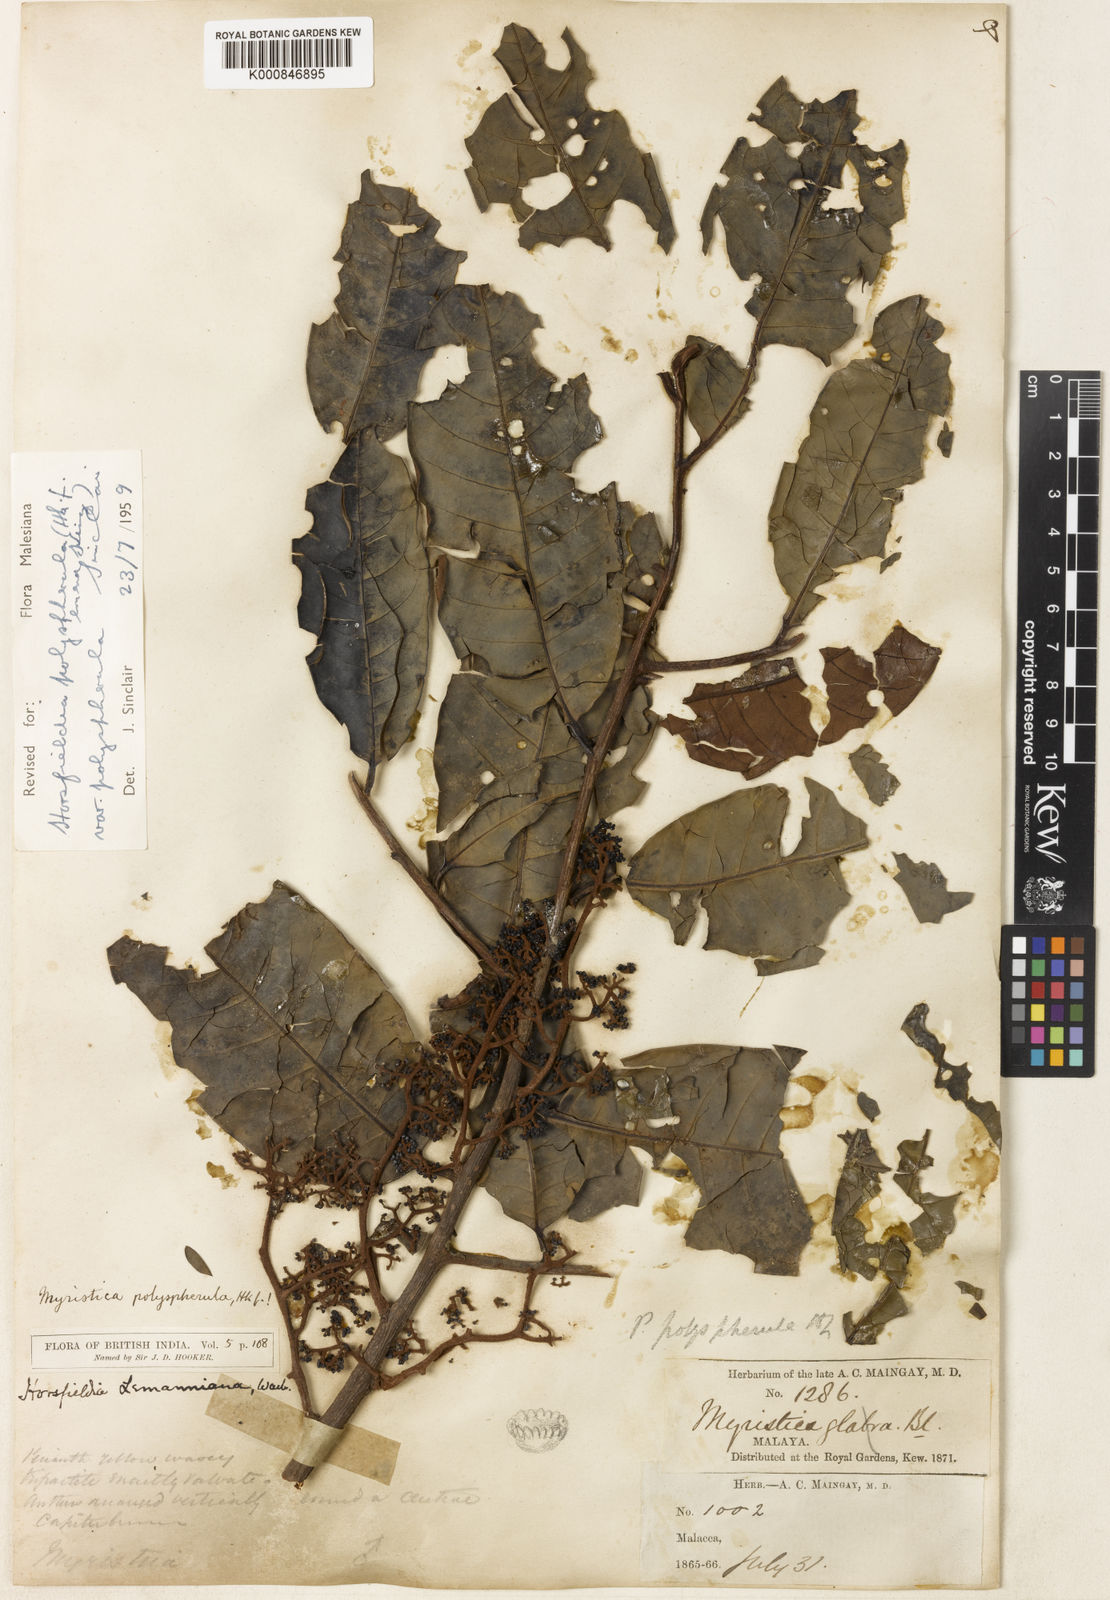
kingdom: Plantae
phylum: Tracheophyta
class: Magnoliopsida
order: Magnoliales
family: Myristicaceae
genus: Horsfieldia
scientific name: Horsfieldia polyspherula
